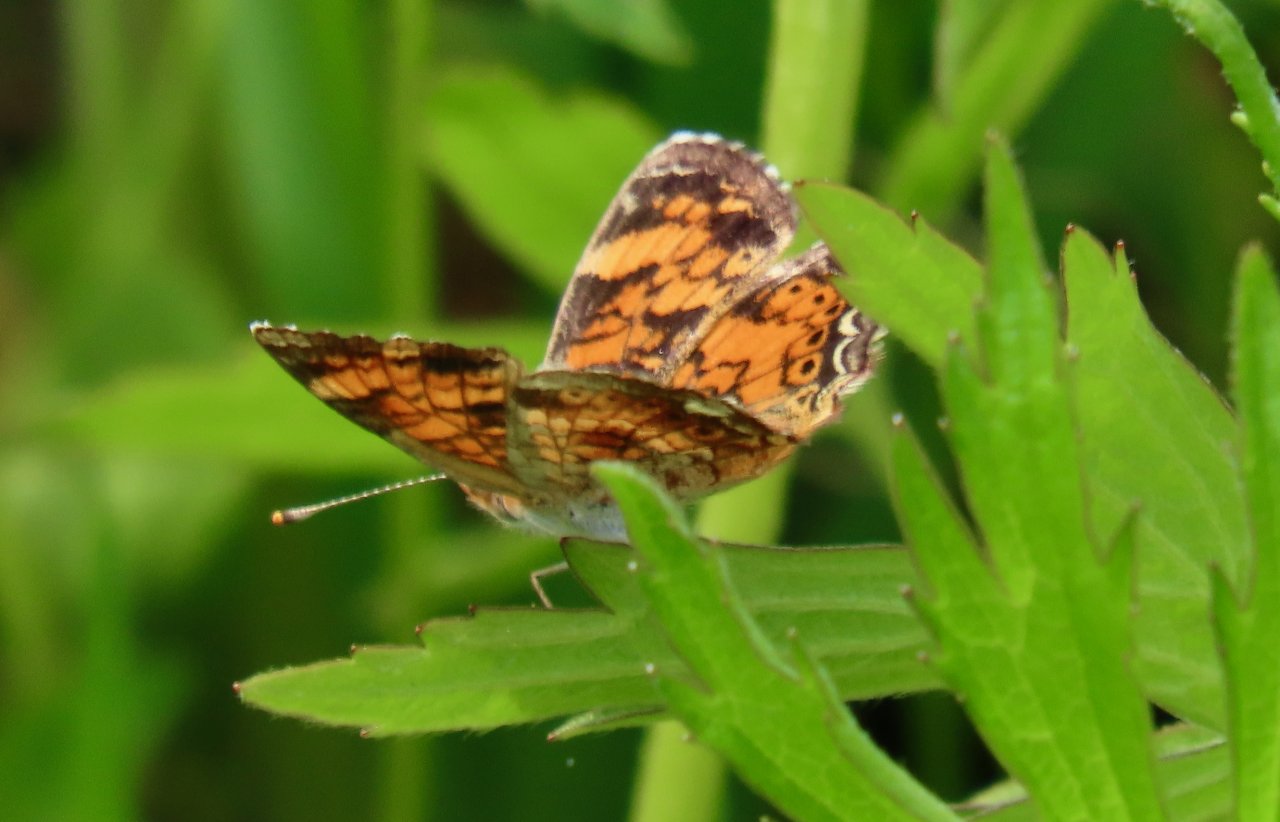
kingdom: Animalia
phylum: Arthropoda
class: Insecta
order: Lepidoptera
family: Nymphalidae
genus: Phyciodes
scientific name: Phyciodes tharos
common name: Pearl Crescent
